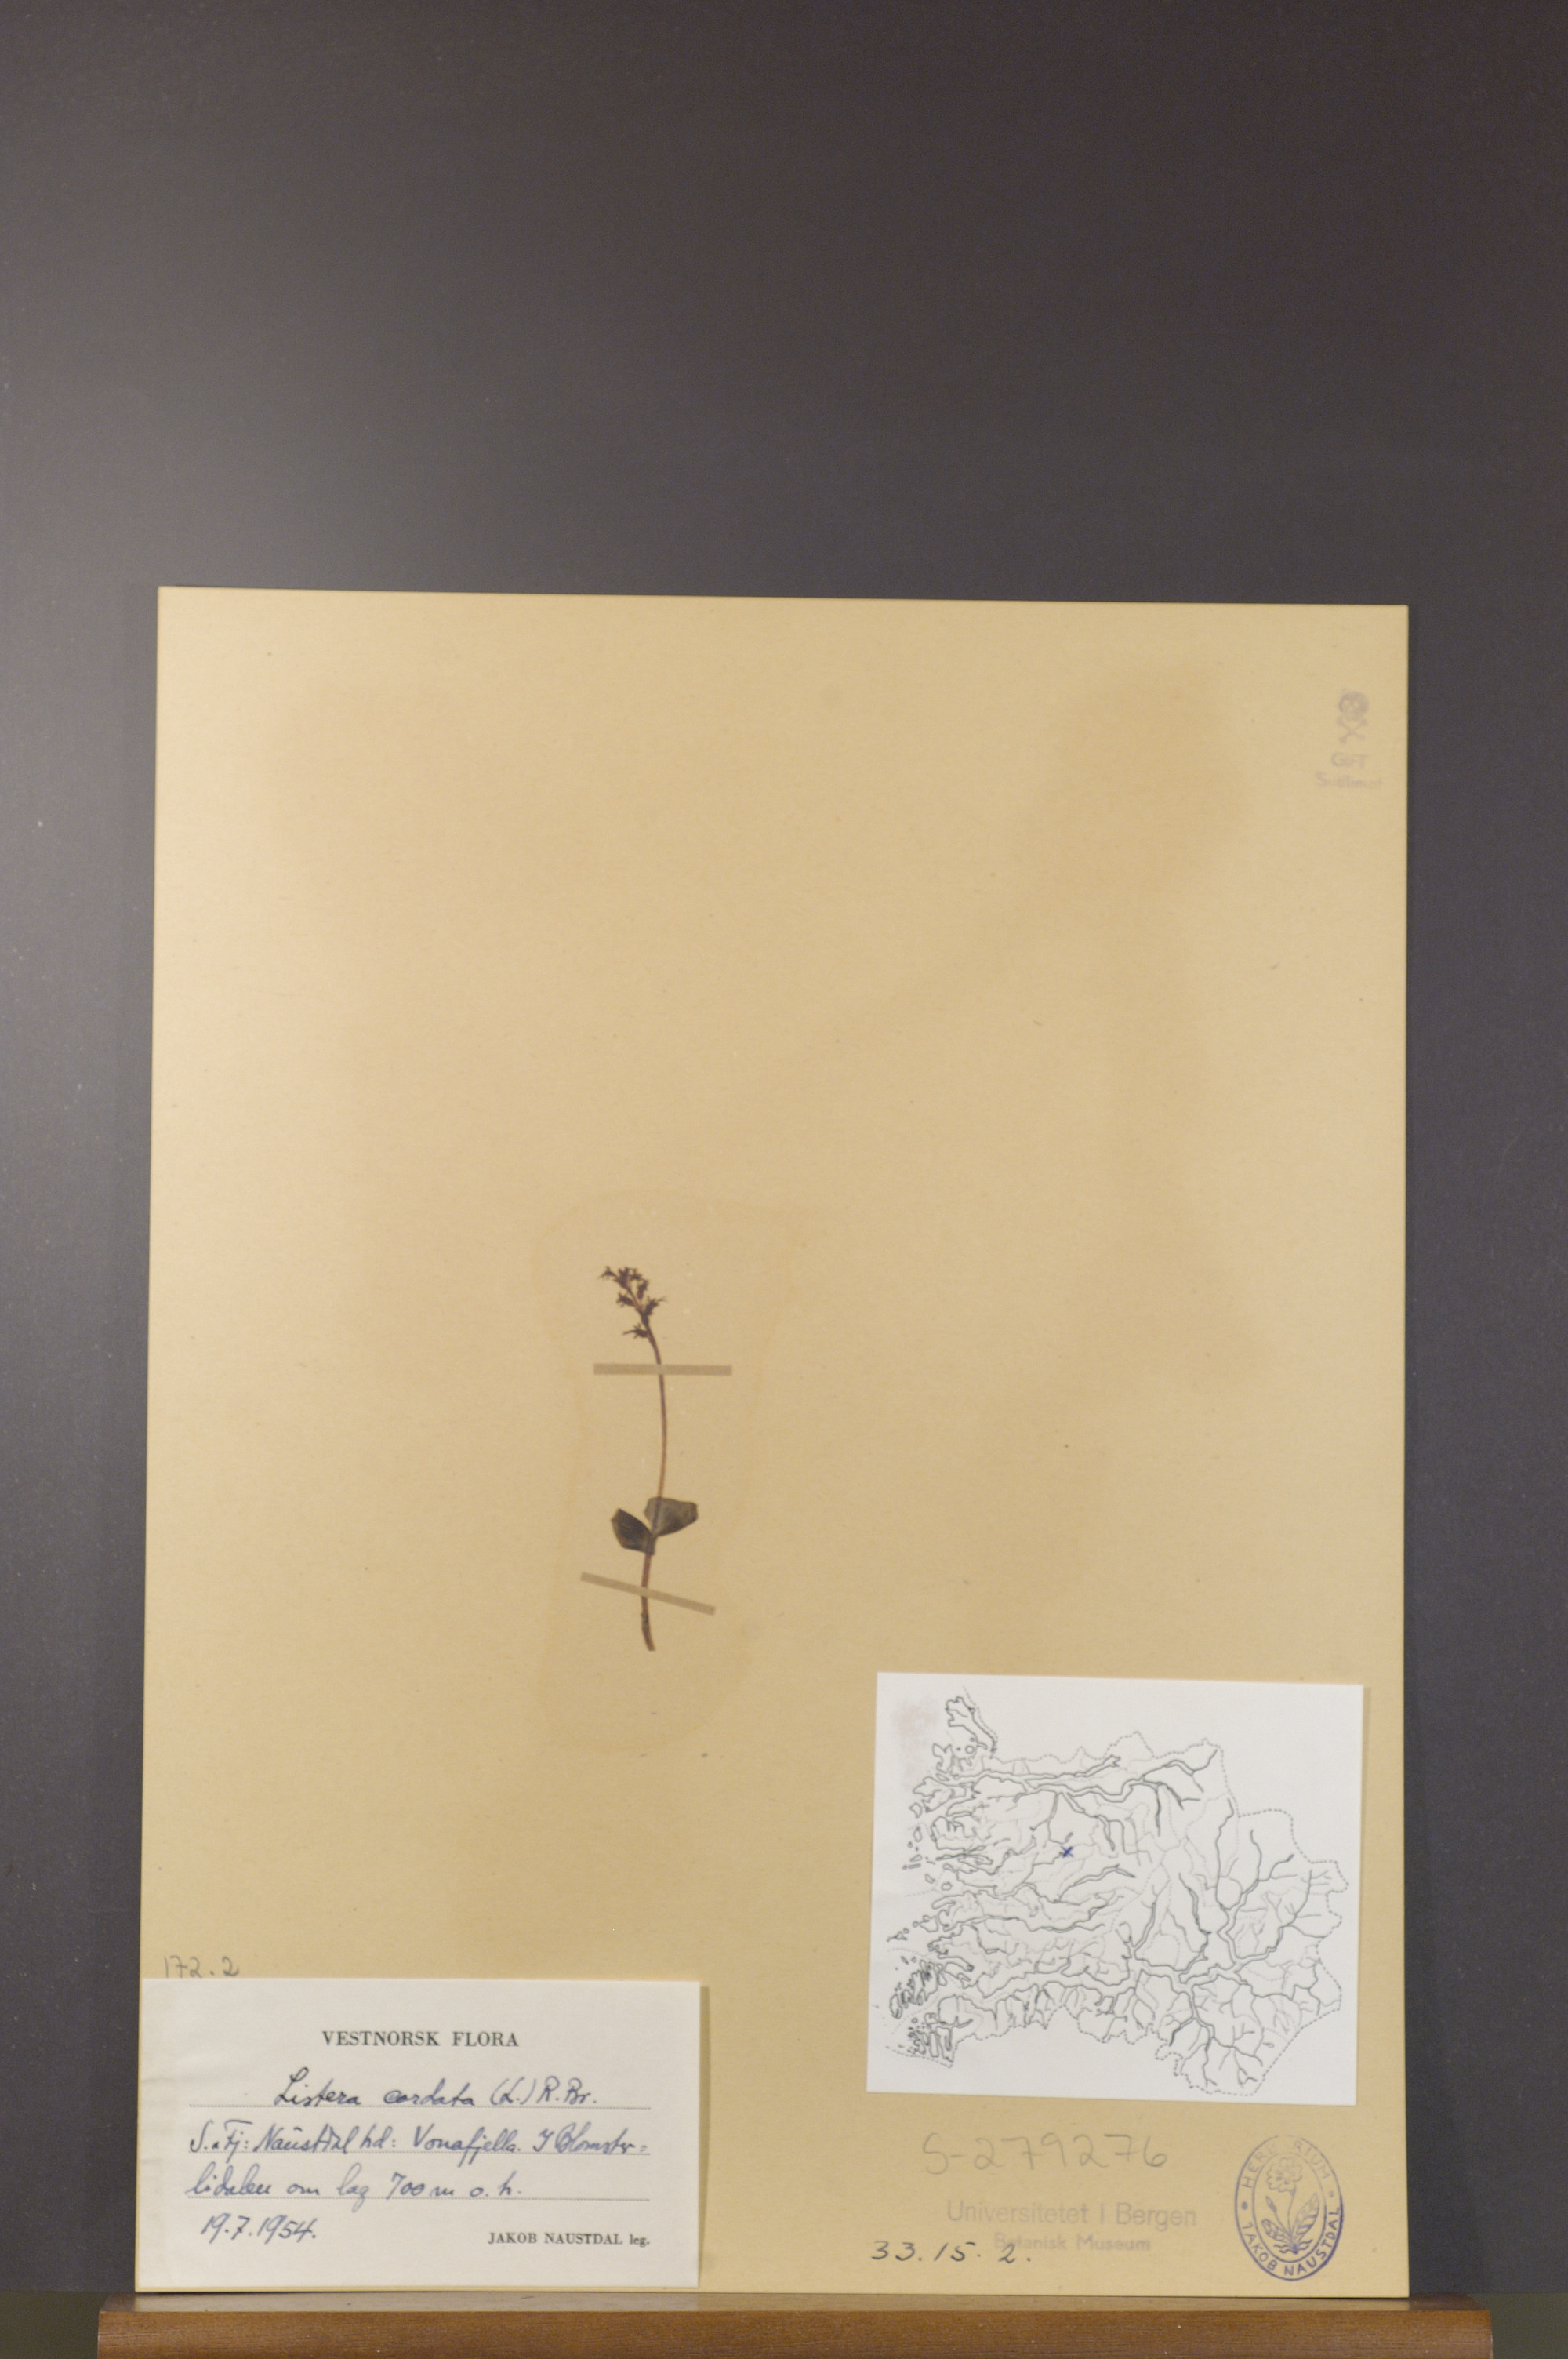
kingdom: Plantae
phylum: Tracheophyta
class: Liliopsida
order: Asparagales
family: Orchidaceae
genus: Neottia
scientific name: Neottia cordata
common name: Lesser twayblade
